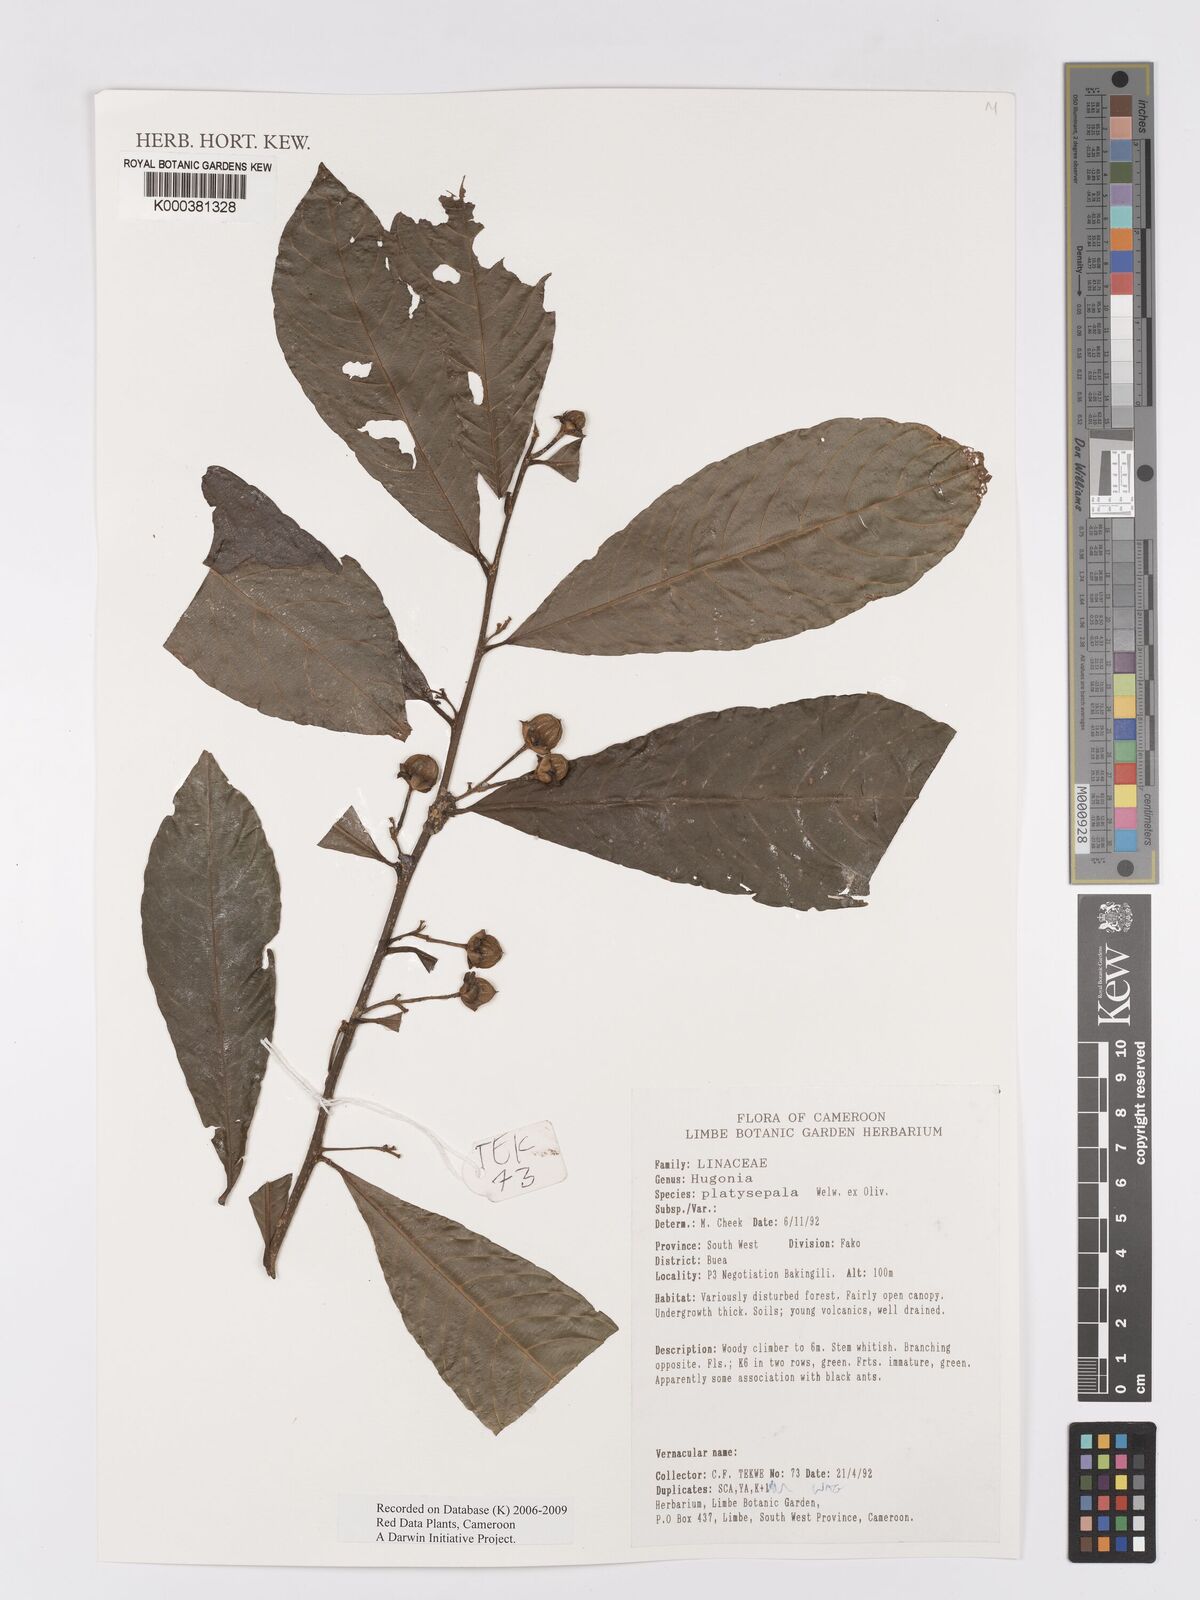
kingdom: Plantae
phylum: Tracheophyta
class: Magnoliopsida
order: Malpighiales
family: Linaceae
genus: Hugonia
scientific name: Hugonia platysepala
